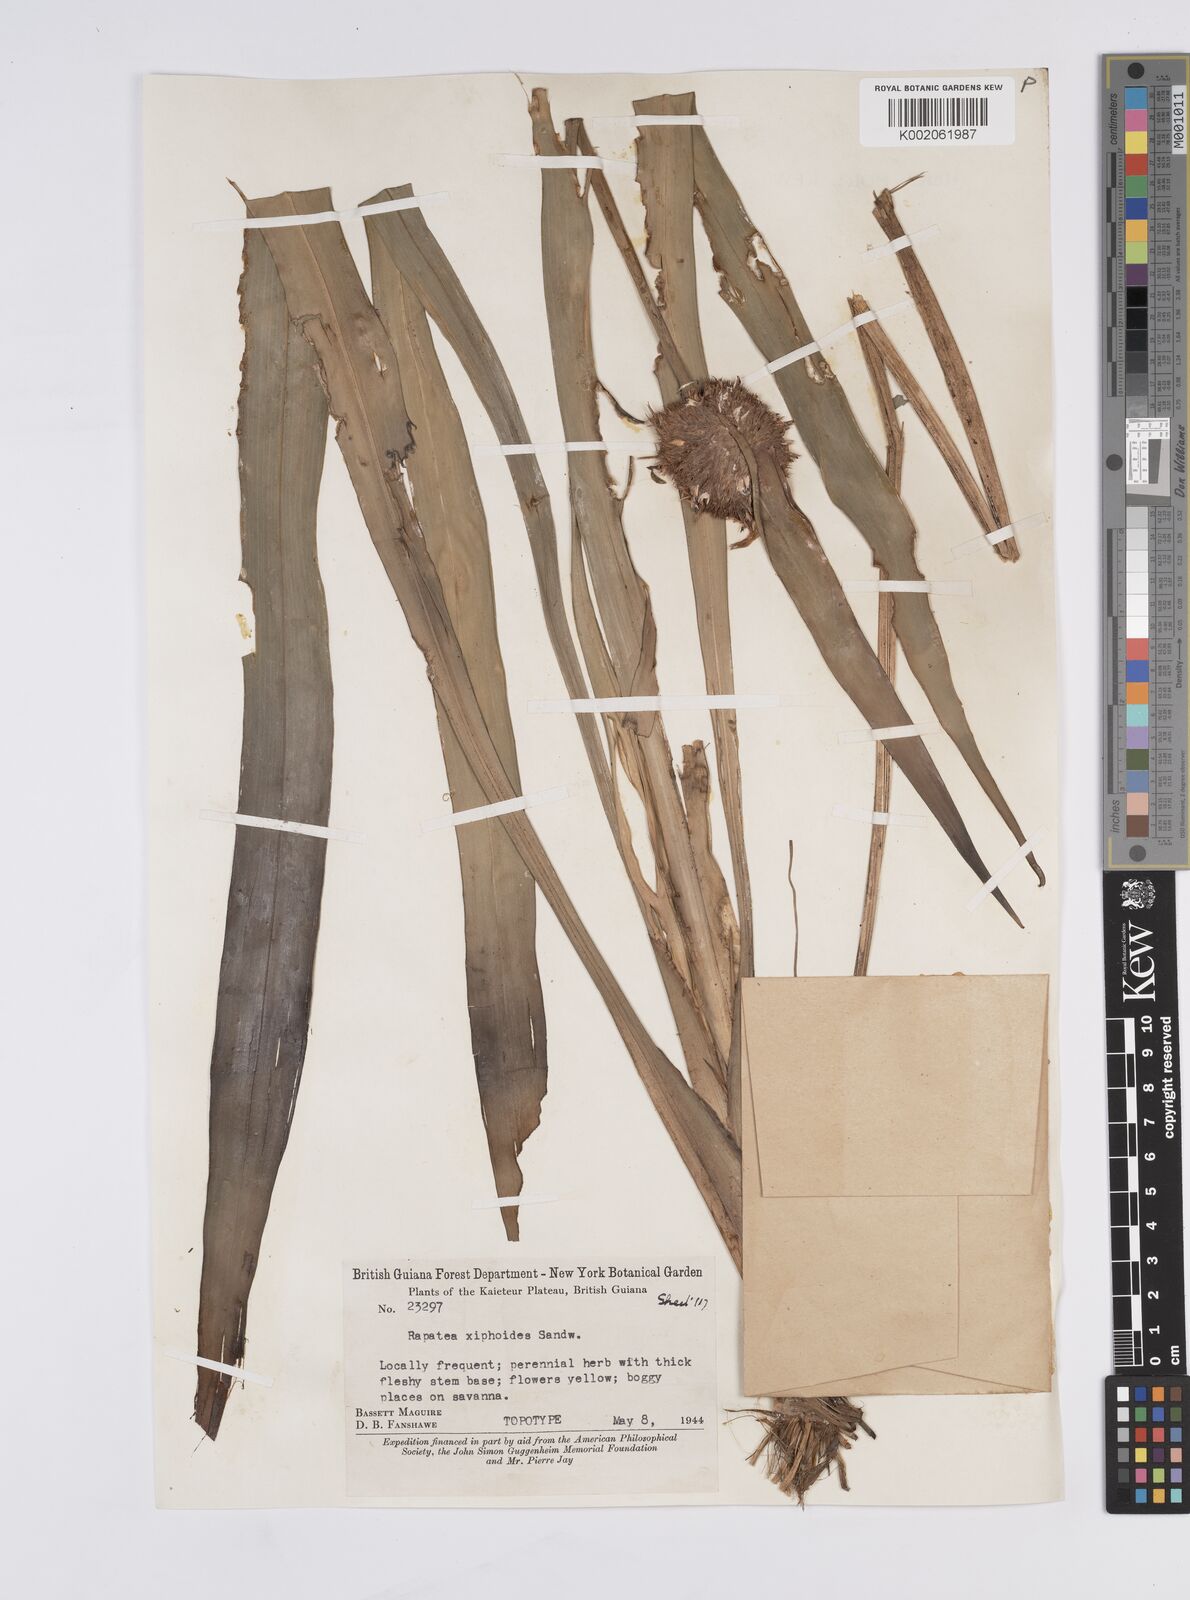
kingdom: Plantae
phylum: Tracheophyta
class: Liliopsida
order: Poales
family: Rapateaceae
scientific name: Rapateaceae
